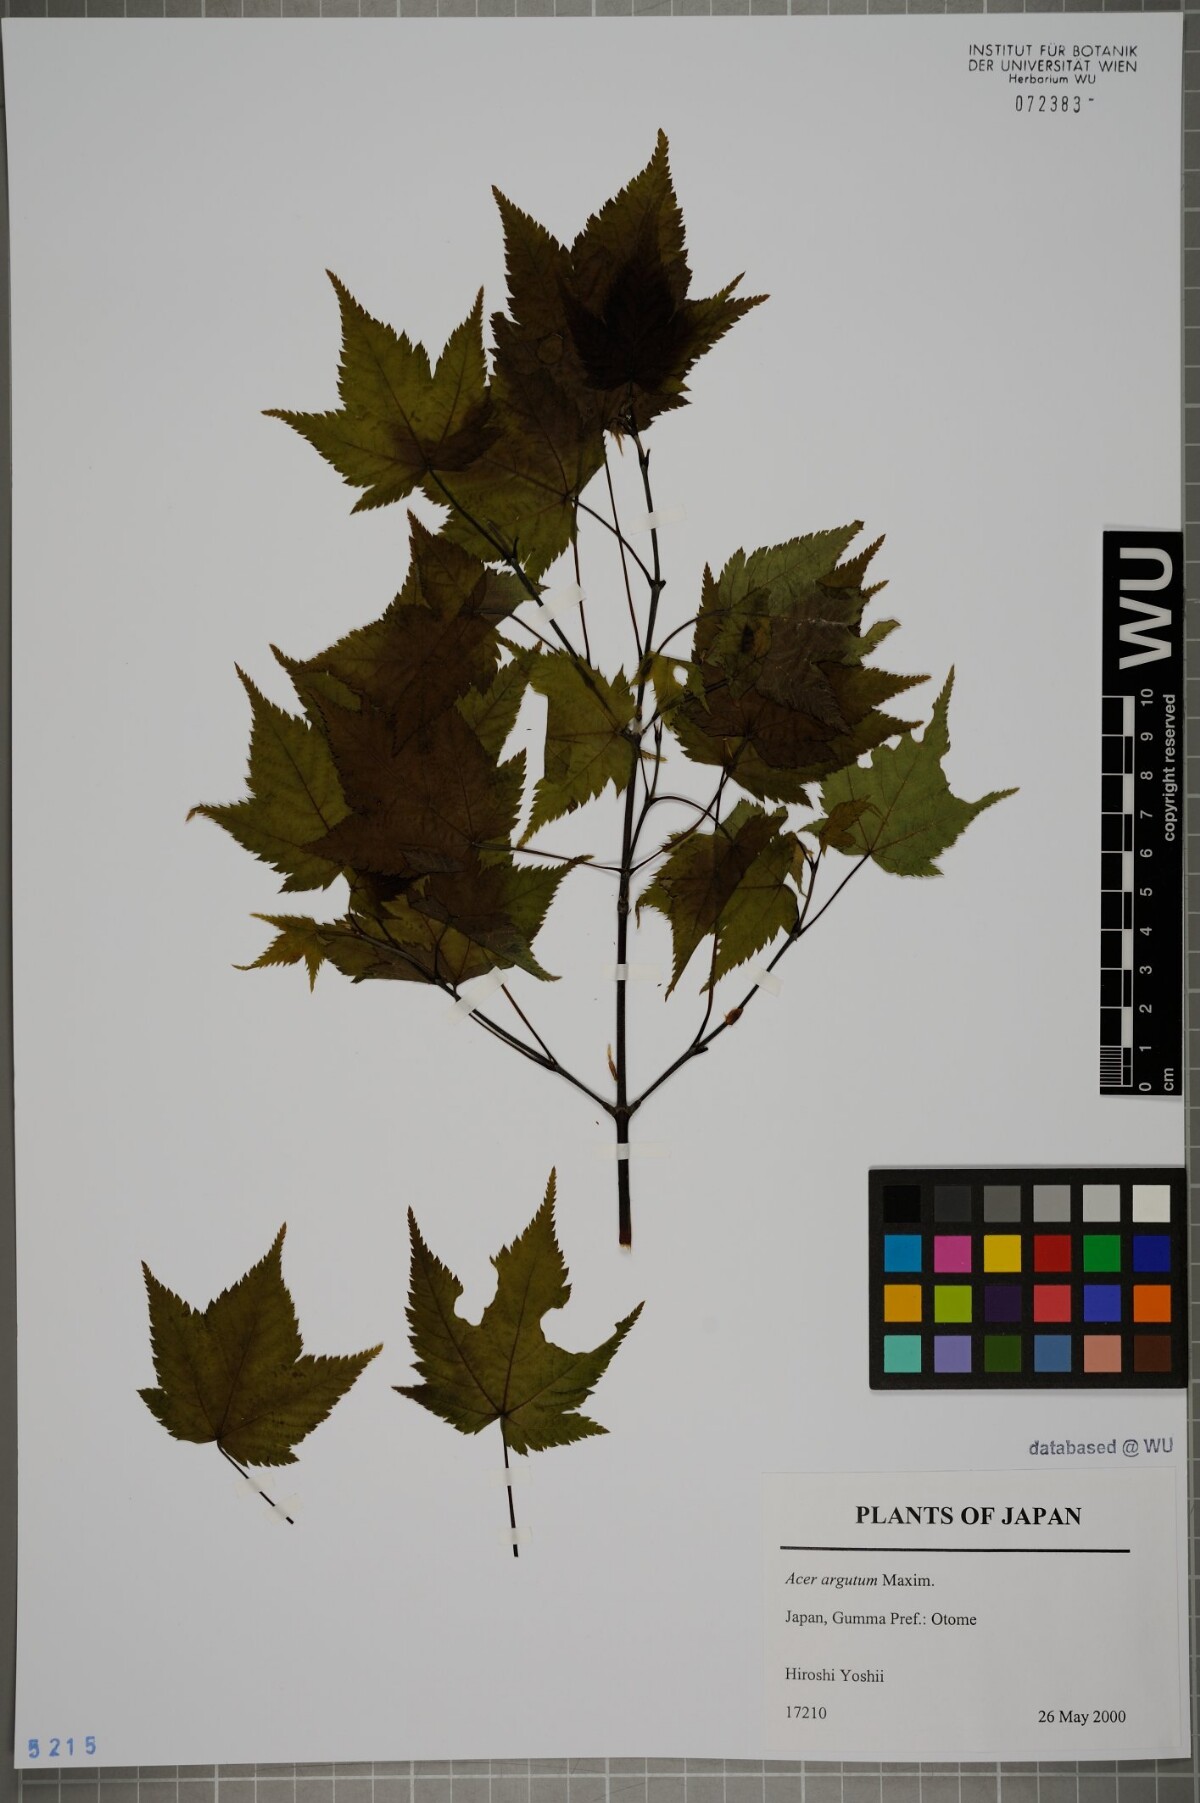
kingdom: Plantae
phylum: Tracheophyta
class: Magnoliopsida
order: Sapindales
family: Sapindaceae
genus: Acer
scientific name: Acer argutum
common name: Pointed-leaf maple
